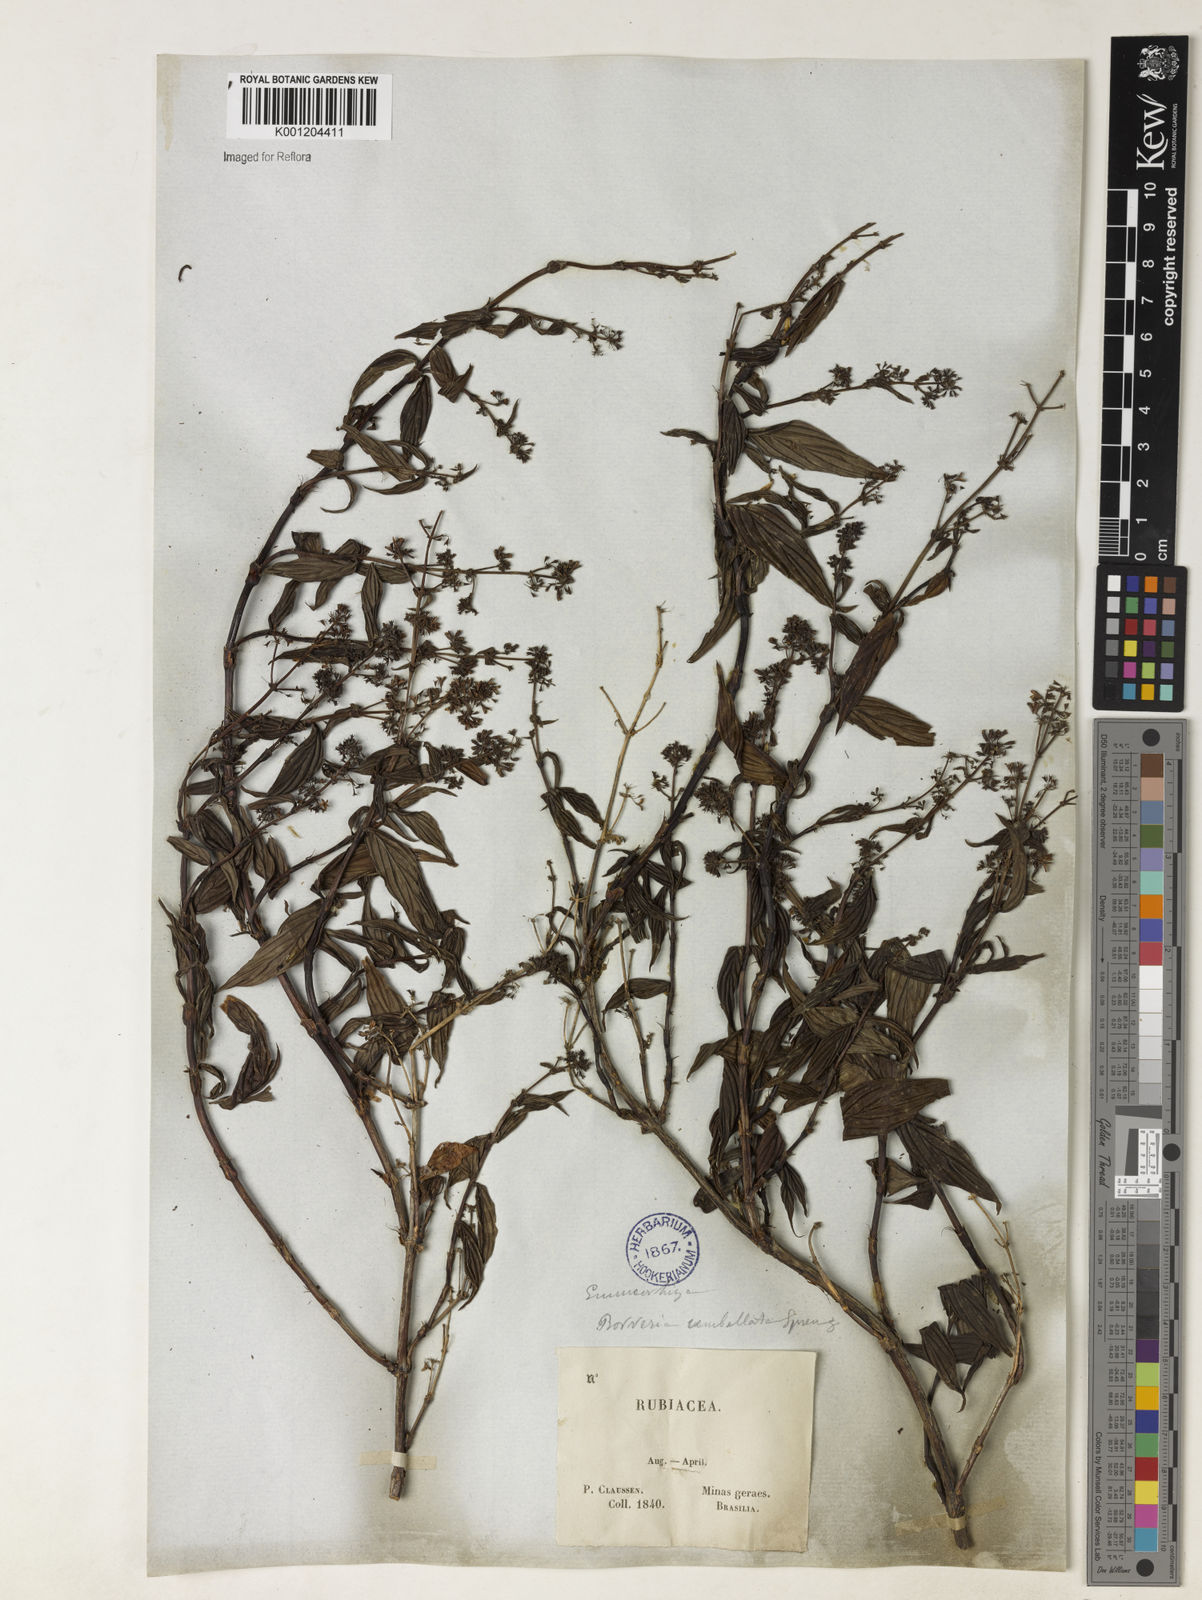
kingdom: Plantae
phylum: Tracheophyta
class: Magnoliopsida
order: Gentianales
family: Rubiaceae
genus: Emmeorhiza
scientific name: Emmeorhiza
